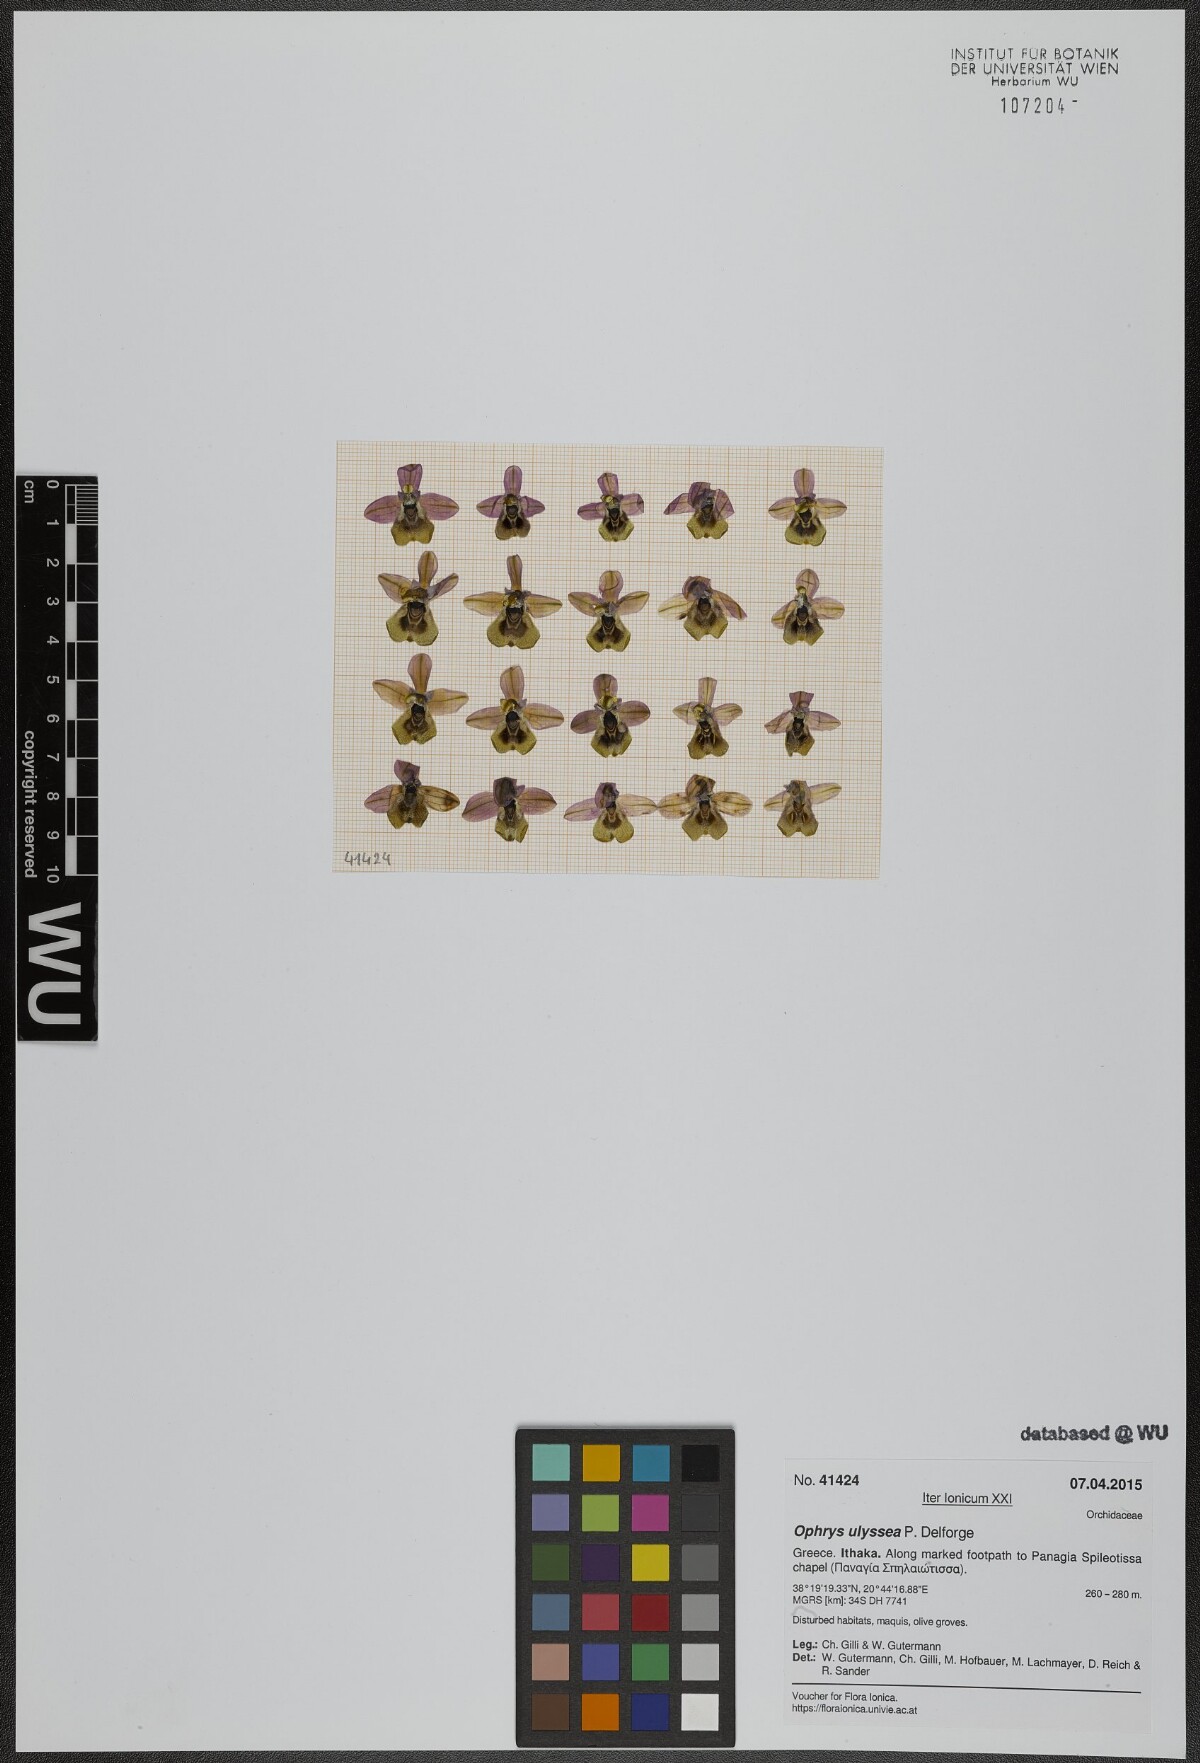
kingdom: Plantae
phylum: Tracheophyta
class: Liliopsida
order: Asparagales
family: Orchidaceae
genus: Ophrys
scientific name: Ophrys tenthredinifera
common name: Sawfly orchid
